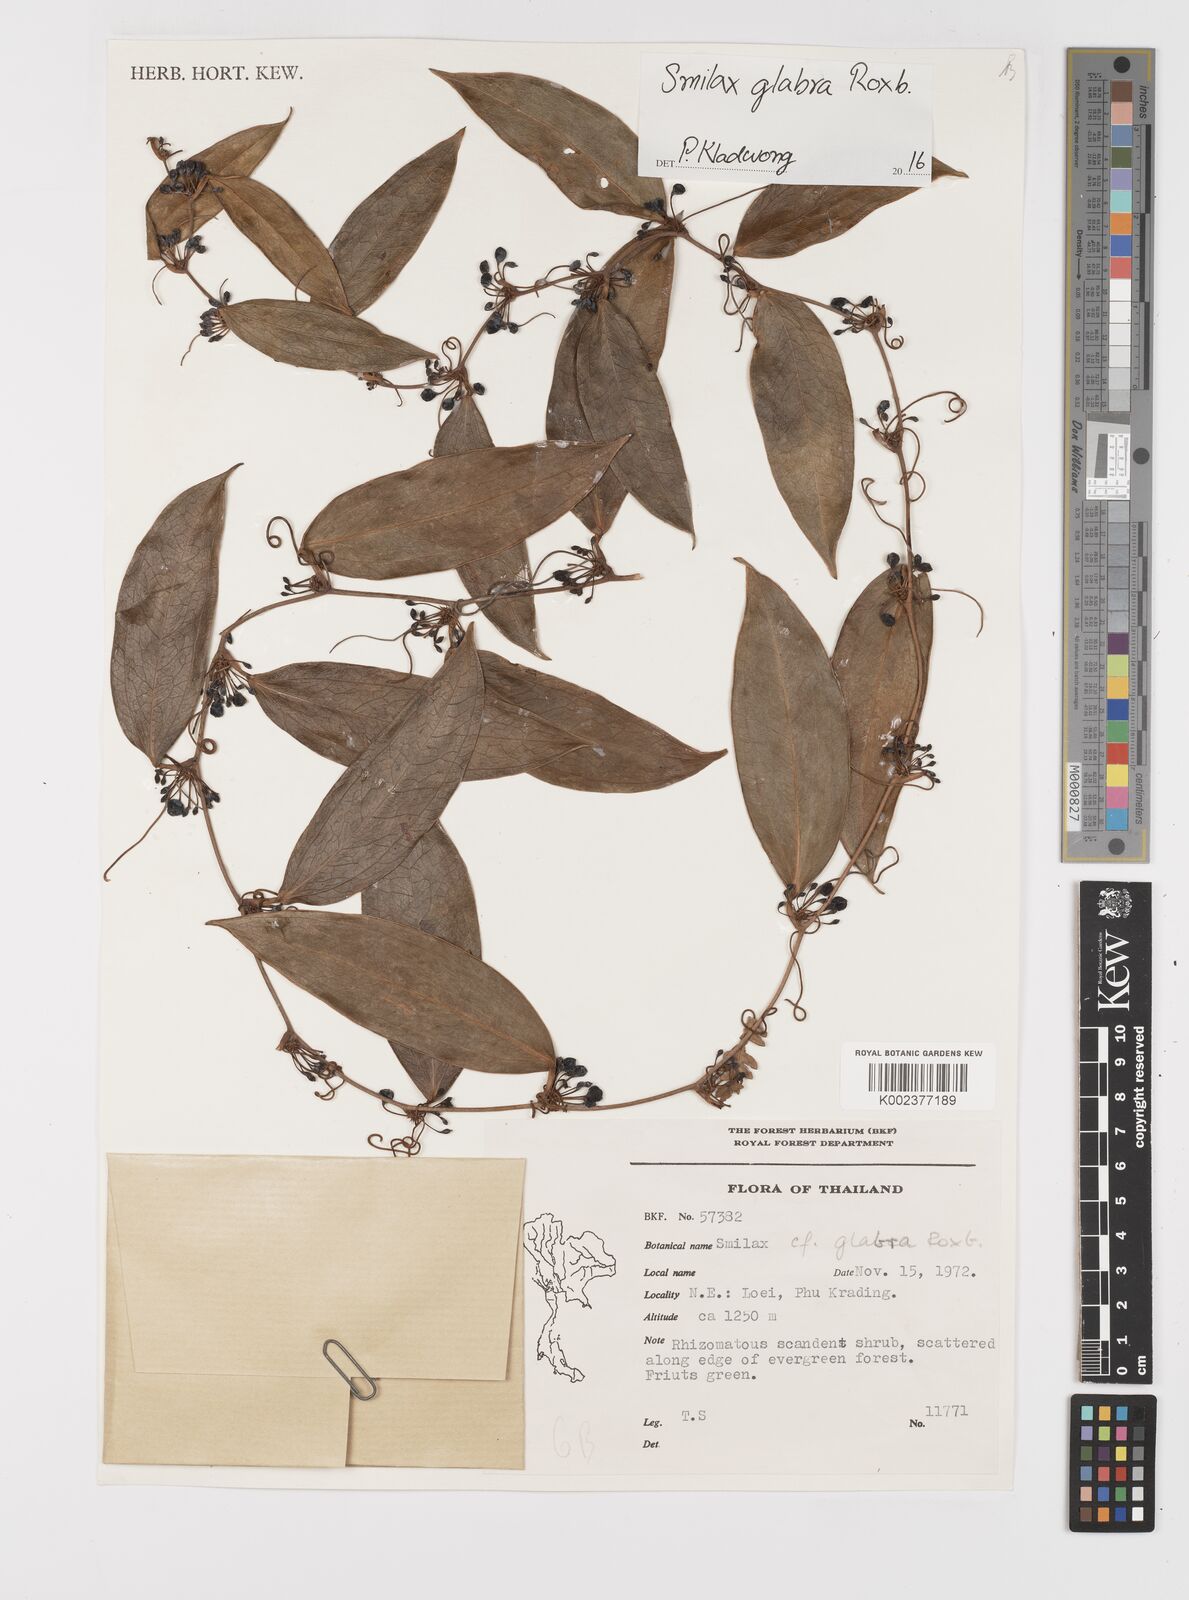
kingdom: Plantae
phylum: Tracheophyta
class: Liliopsida
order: Liliales
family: Smilacaceae
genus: Smilax
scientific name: Smilax glabra
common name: Chinese smilax
